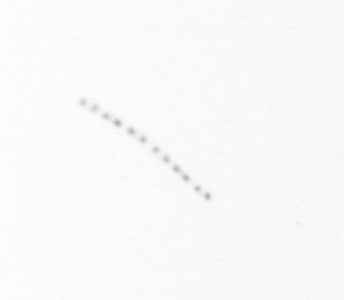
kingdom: Chromista
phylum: Ochrophyta
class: Bacillariophyceae
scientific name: Bacillariophyceae
